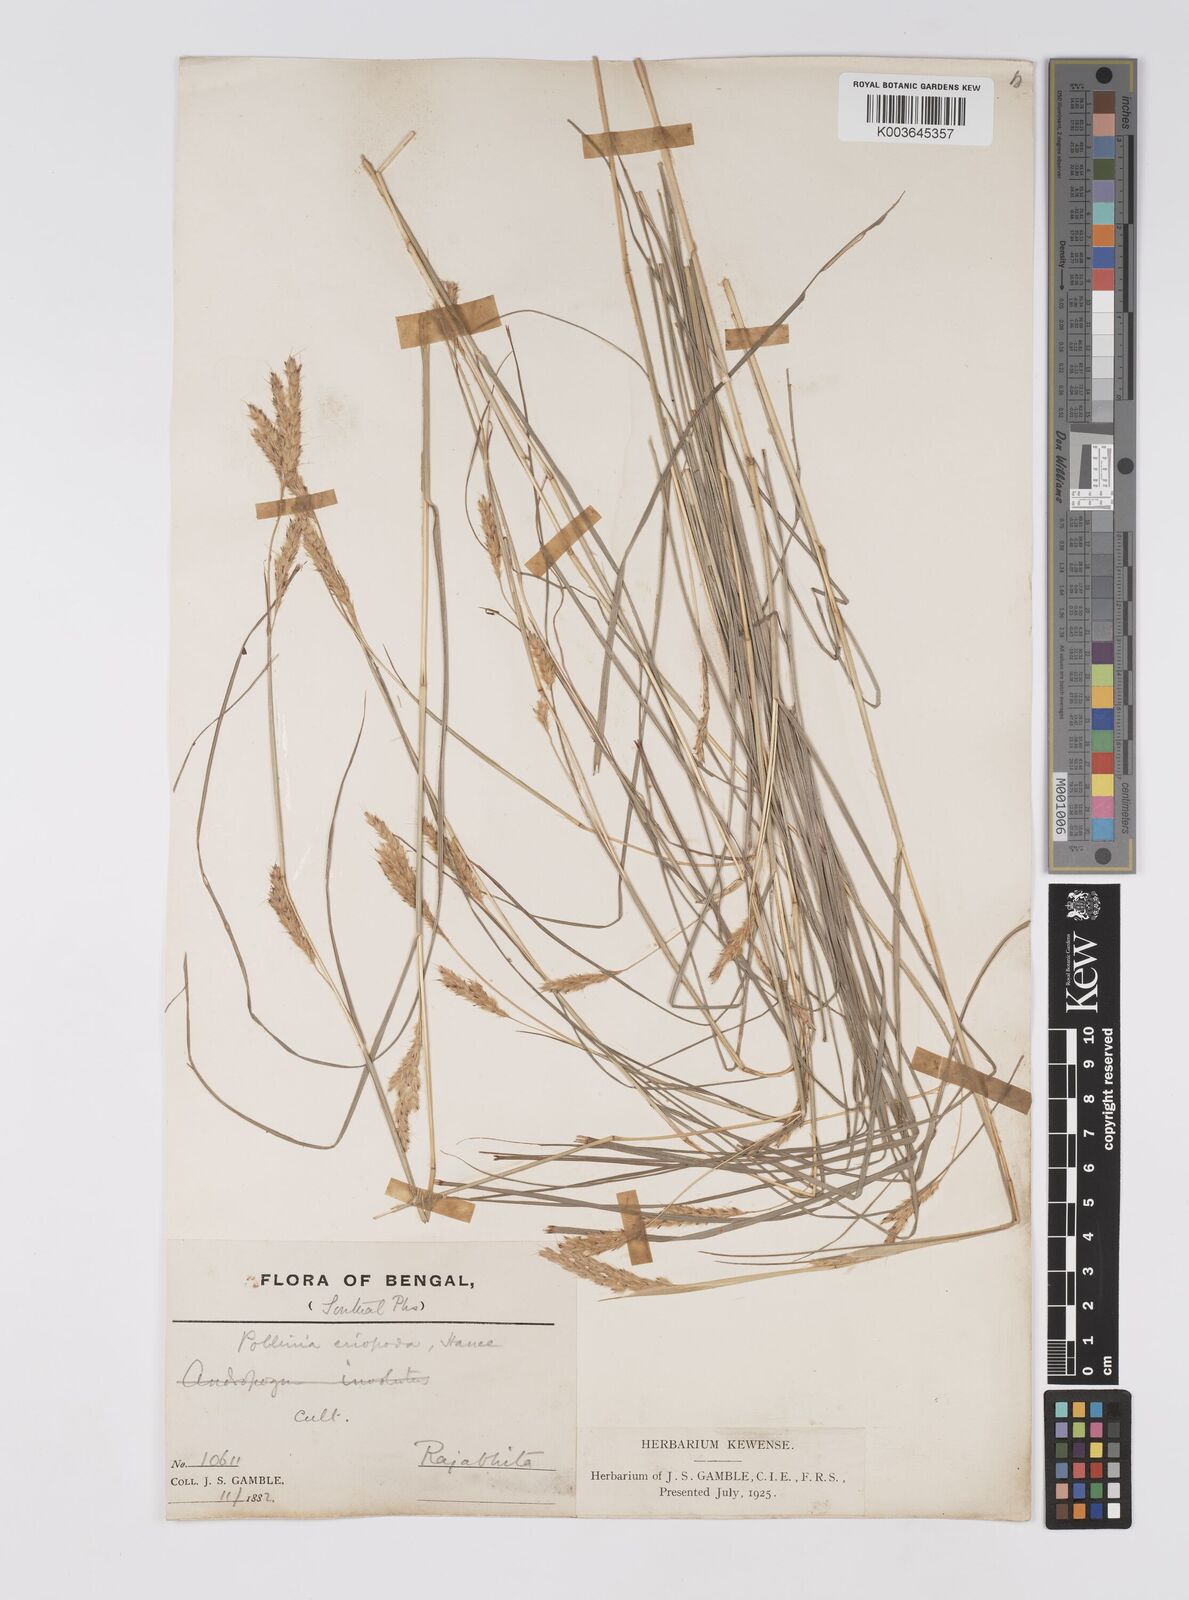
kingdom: Plantae
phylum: Tracheophyta
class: Liliopsida
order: Poales
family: Poaceae
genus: Eulaliopsis
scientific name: Eulaliopsis binata
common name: Baib grass
